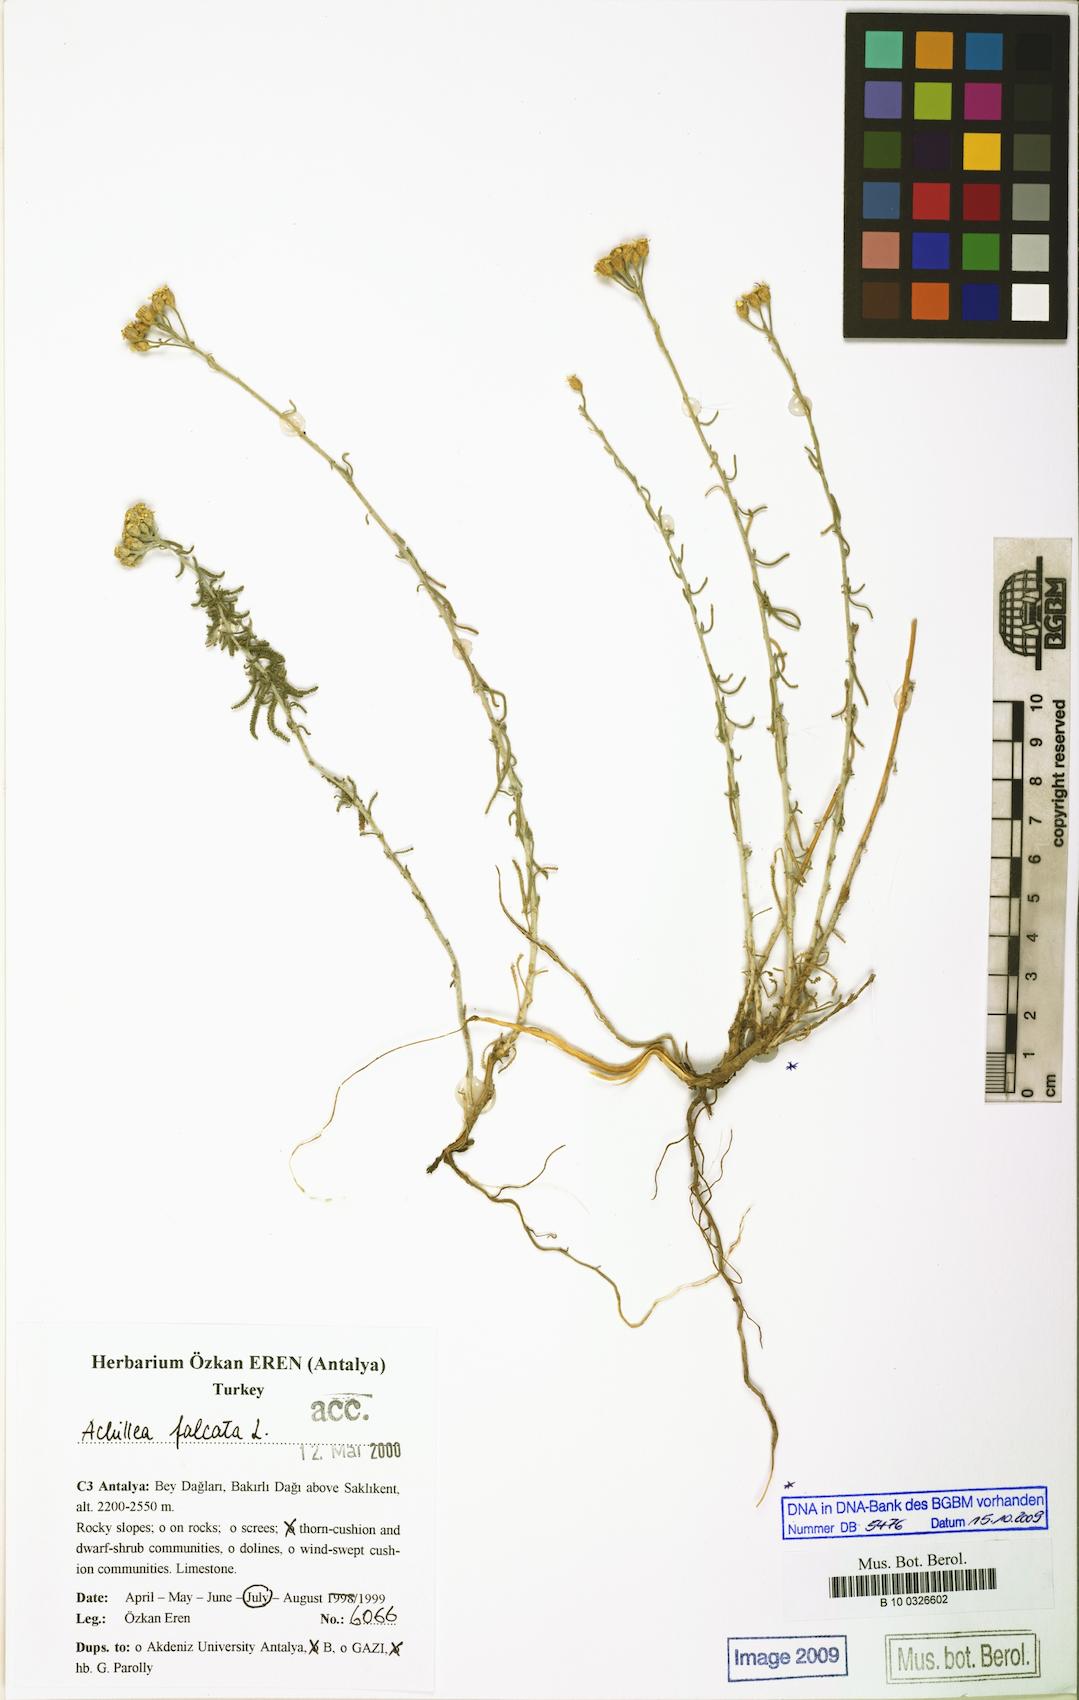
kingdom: Plantae
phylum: Tracheophyta
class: Magnoliopsida
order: Asterales
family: Asteraceae
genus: Achillea
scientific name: Achillea falcata
